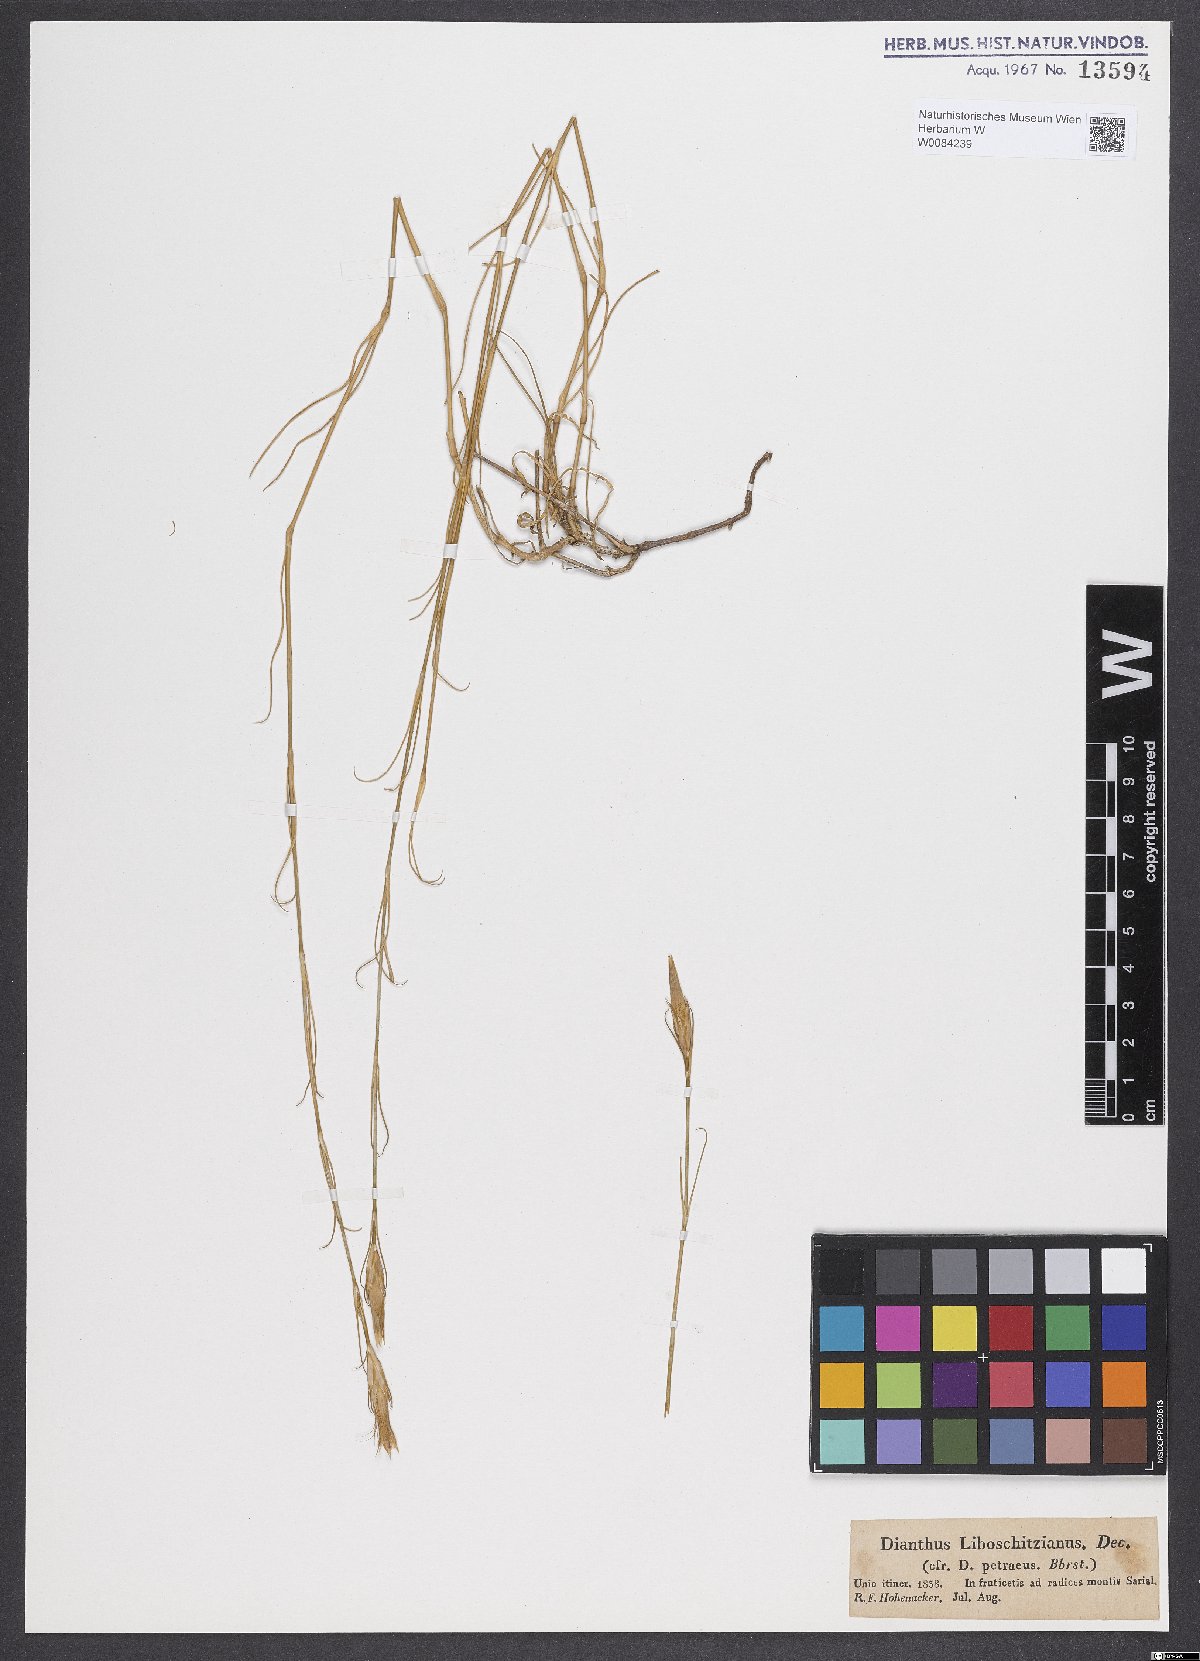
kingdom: Plantae
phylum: Tracheophyta
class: Magnoliopsida
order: Caryophyllales
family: Caryophyllaceae
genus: Dianthus
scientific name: Dianthus cretaceus
